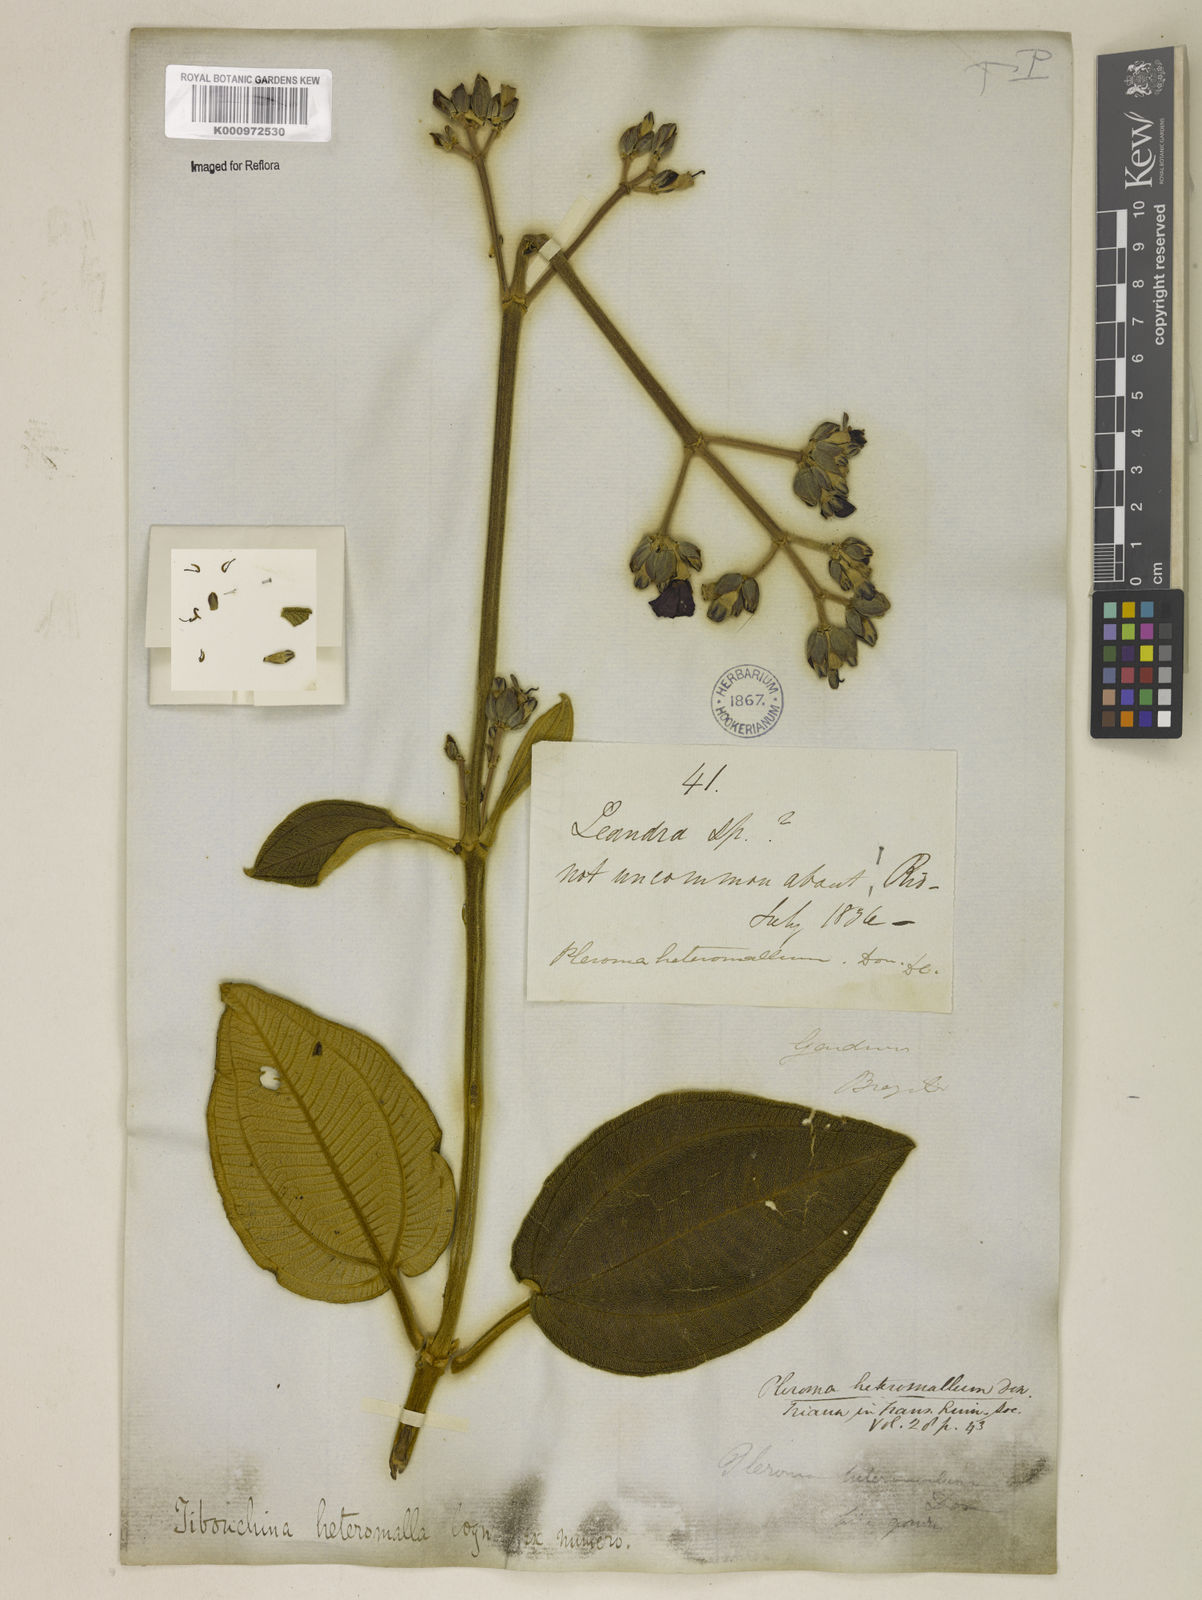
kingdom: Plantae
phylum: Tracheophyta
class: Magnoliopsida
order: Myrtales
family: Melastomataceae
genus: Pleroma
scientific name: Pleroma heteromallum
